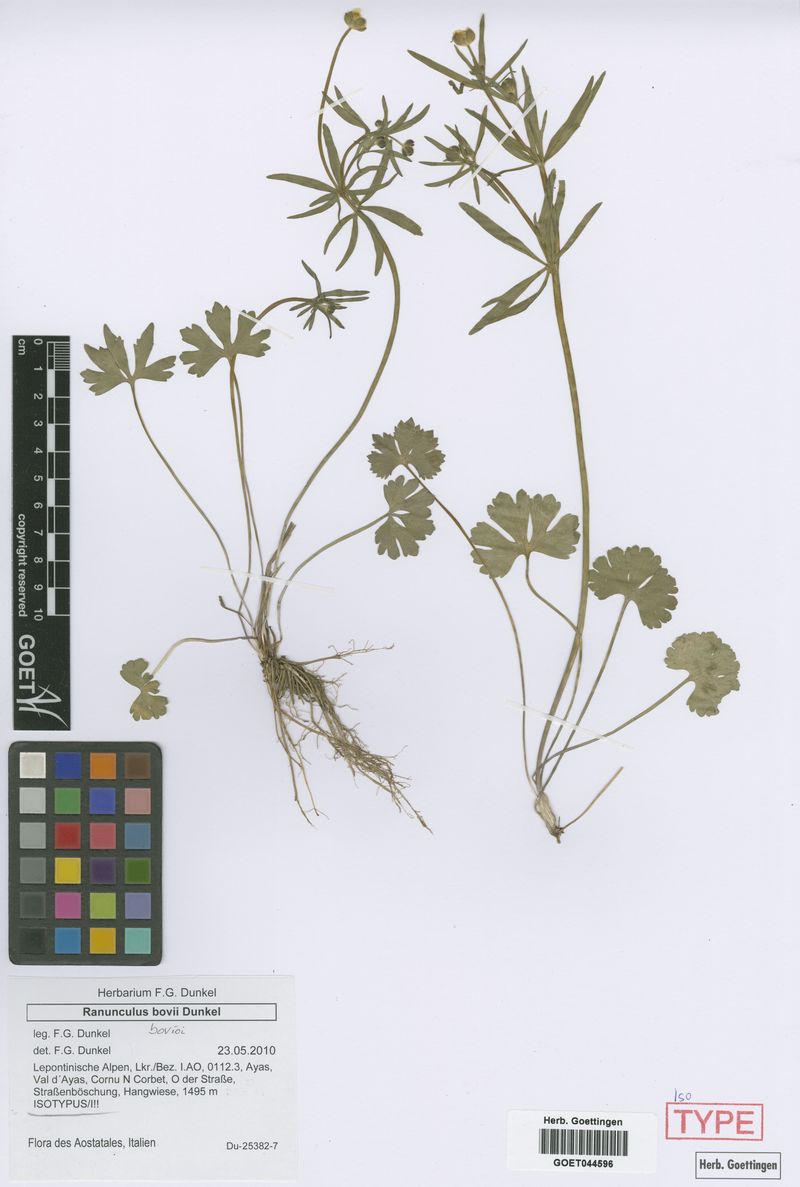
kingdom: Plantae
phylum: Tracheophyta
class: Magnoliopsida
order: Ranunculales
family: Ranunculaceae
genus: Ranunculus
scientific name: Ranunculus bovioi
